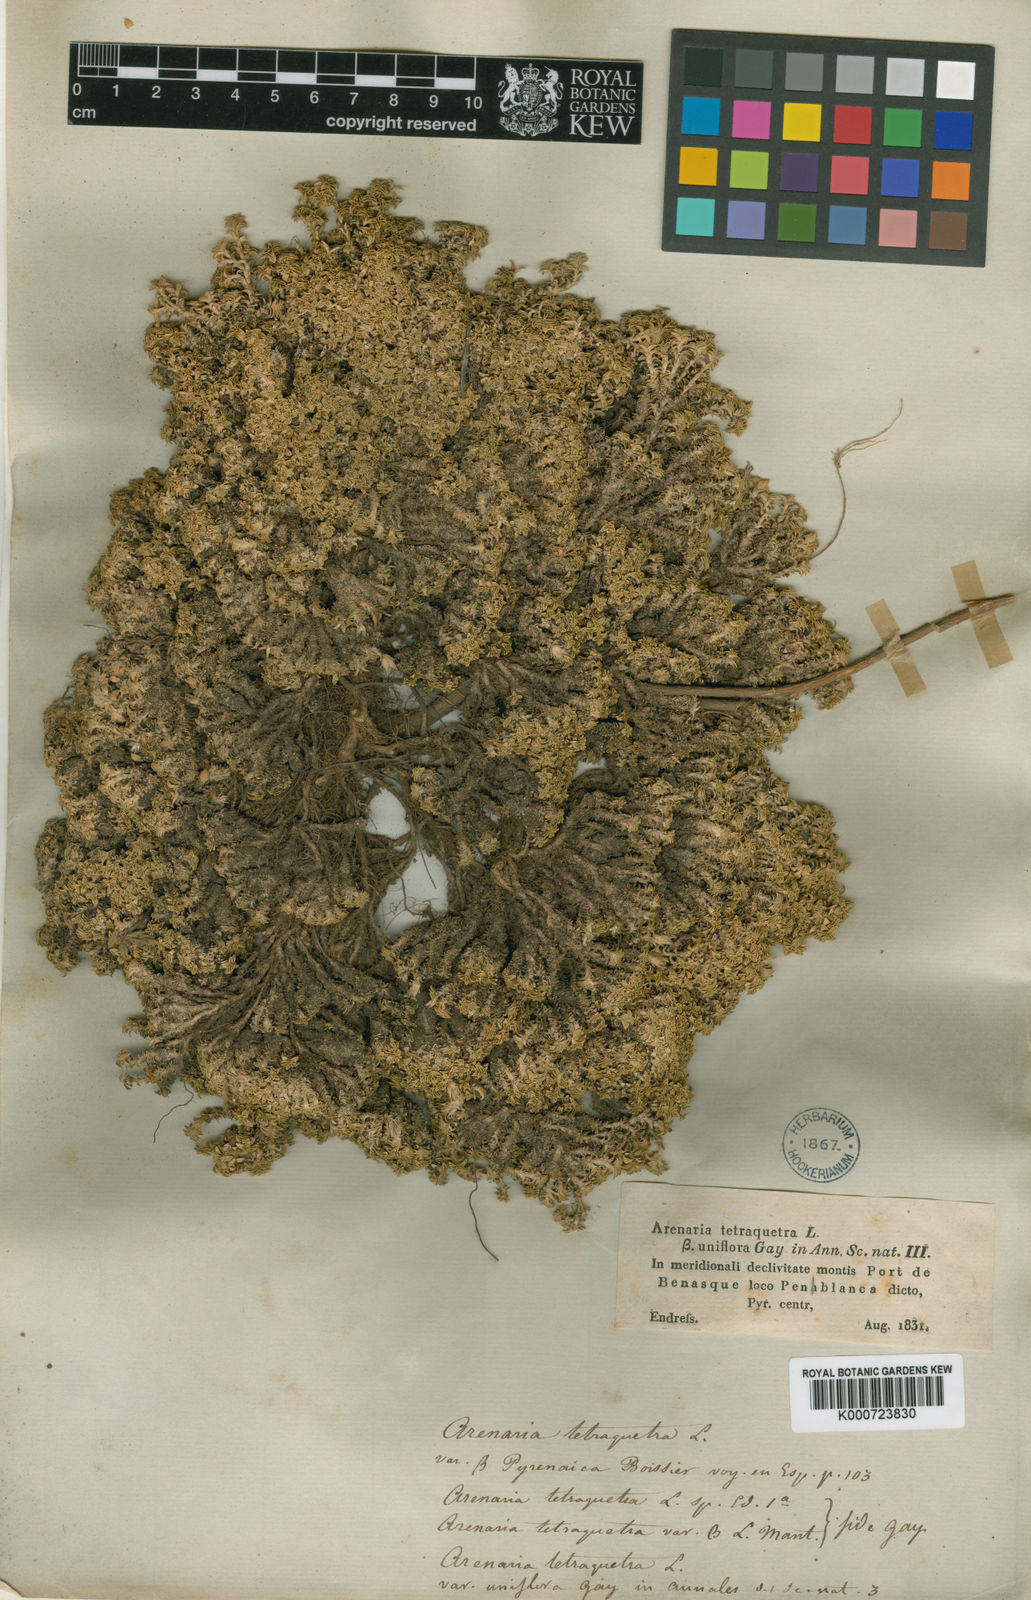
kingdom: Plantae
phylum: Tracheophyta
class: Magnoliopsida
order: Caryophyllales
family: Caryophyllaceae
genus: Arenaria
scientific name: Arenaria tetraquetra
